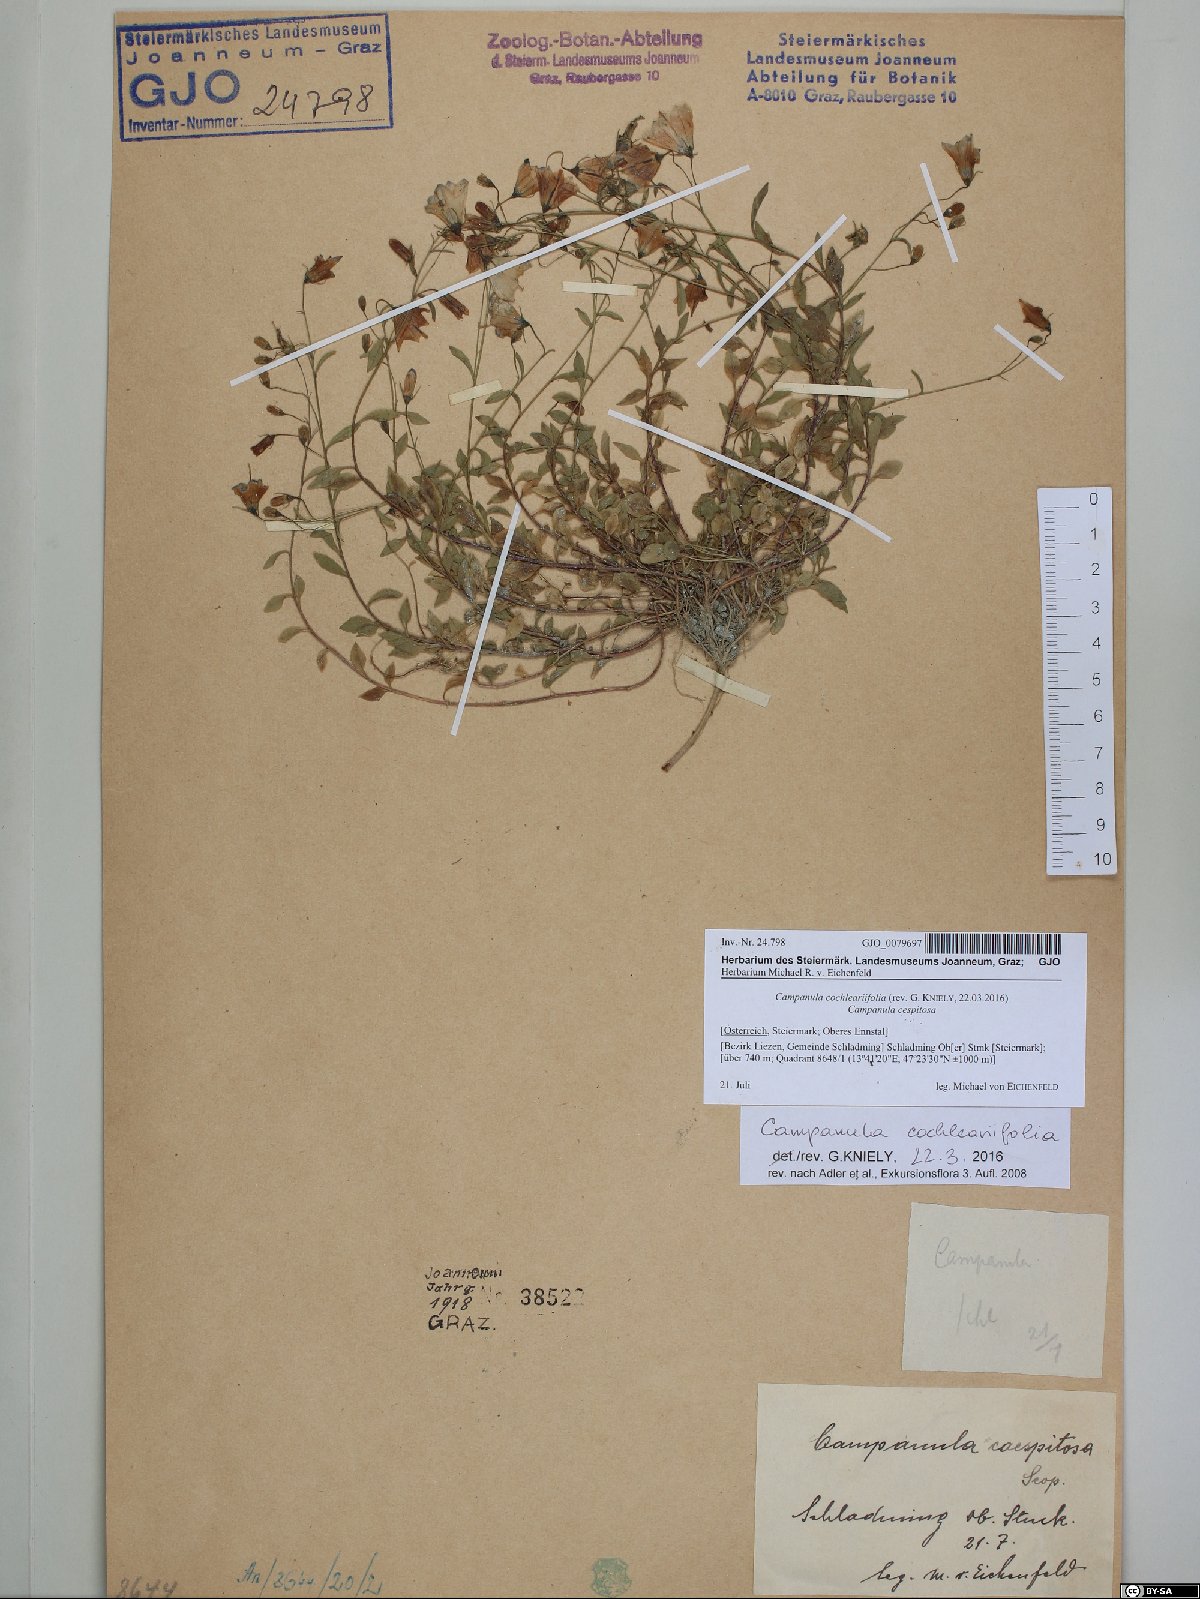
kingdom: Plantae
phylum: Tracheophyta
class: Magnoliopsida
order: Asterales
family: Campanulaceae
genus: Campanula
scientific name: Campanula cochleariifolia
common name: Fairies'-thimbles
